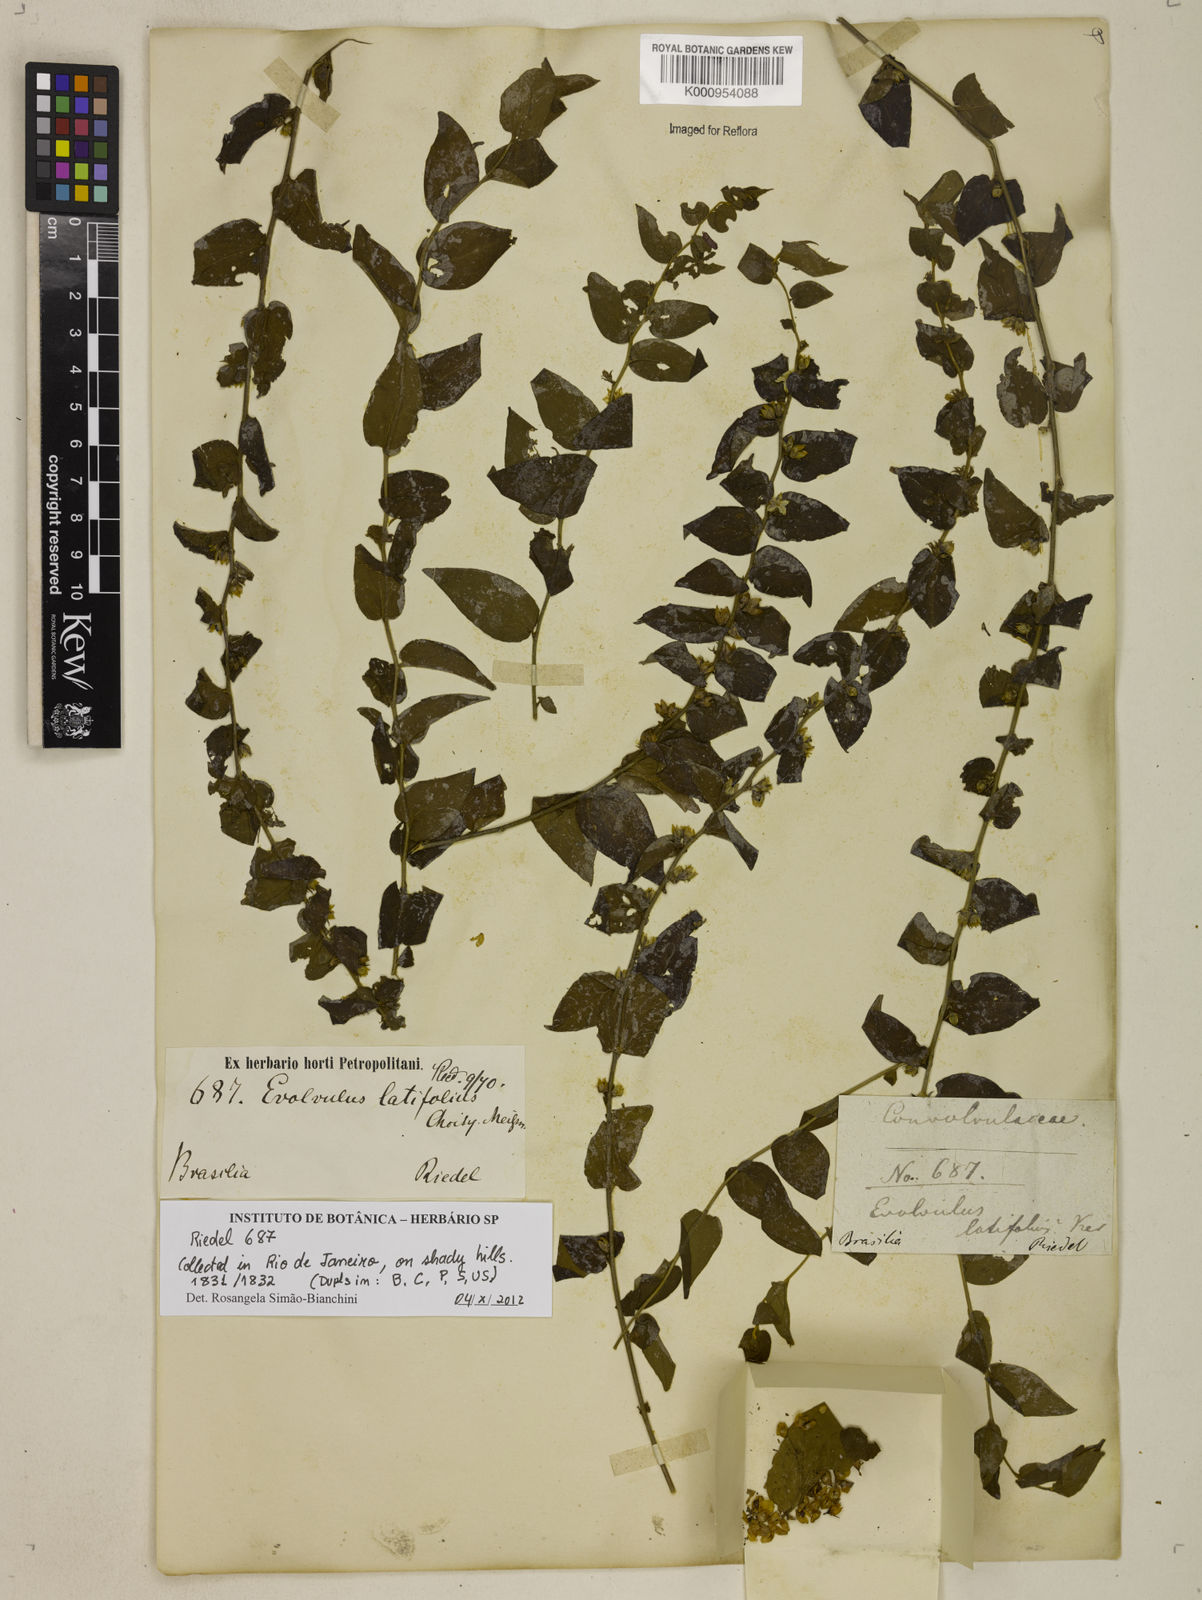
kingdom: Plantae
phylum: Tracheophyta
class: Magnoliopsida
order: Solanales
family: Convolvulaceae
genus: Evolvulus
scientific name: Evolvulus latifolius
